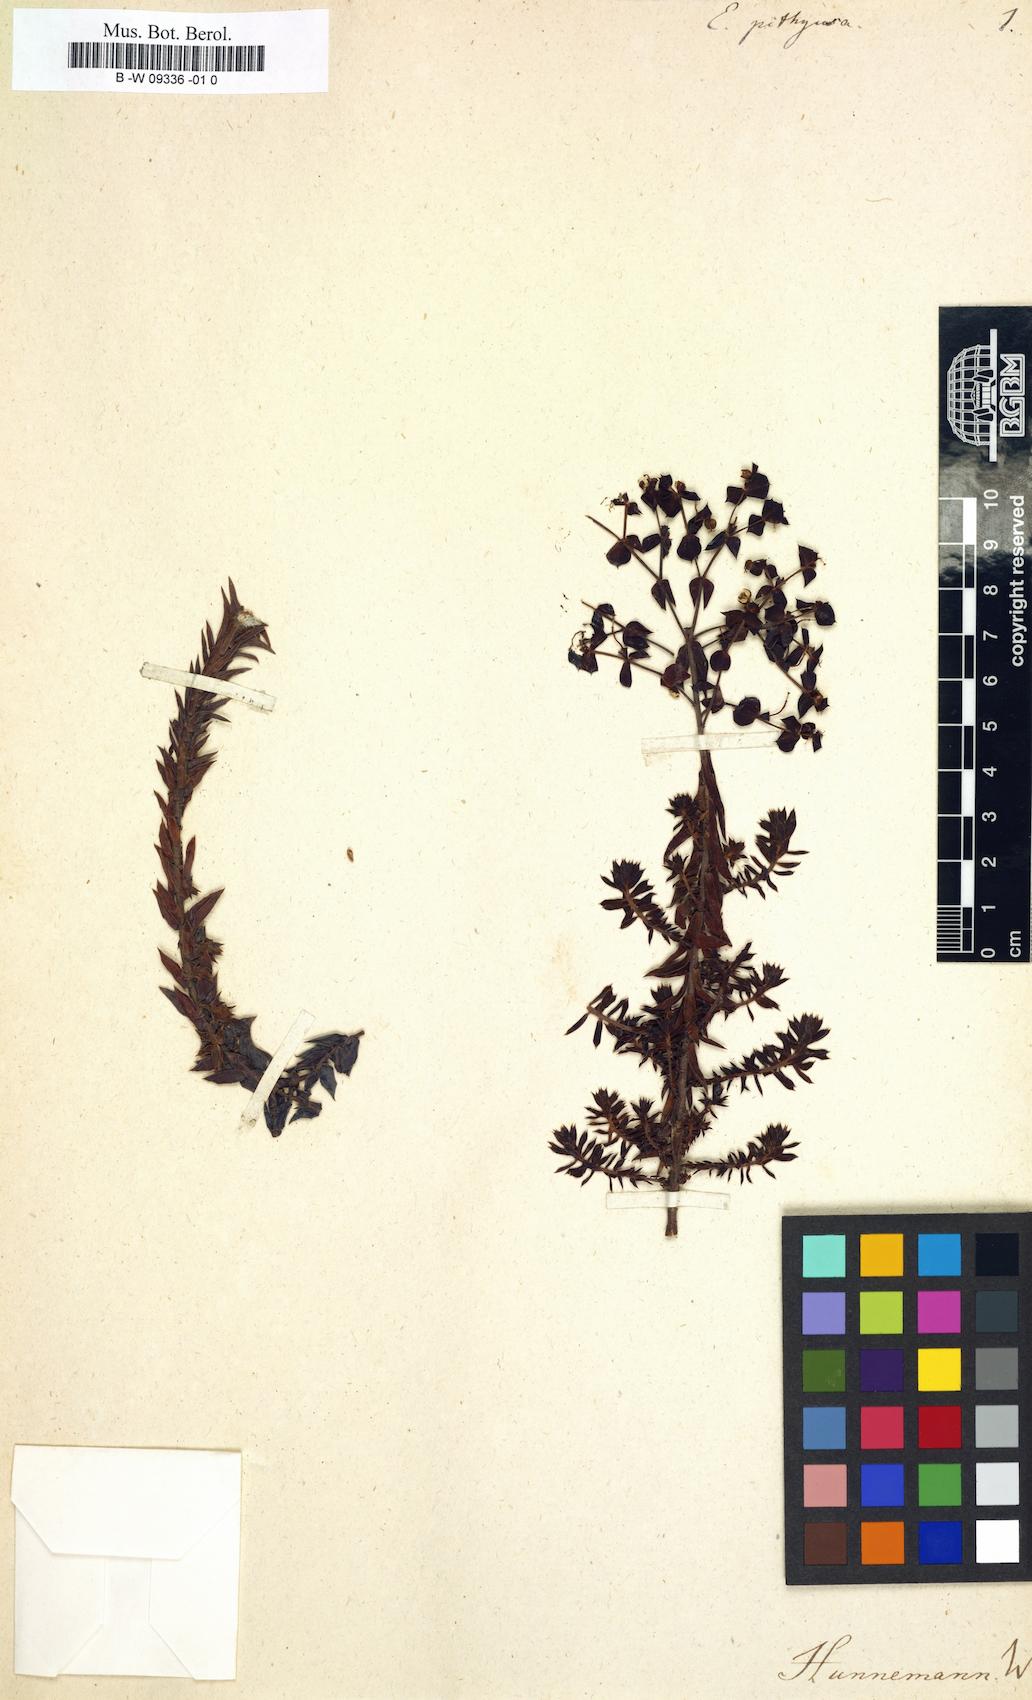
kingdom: Plantae
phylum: Tracheophyta
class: Magnoliopsida
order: Malpighiales
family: Euphorbiaceae
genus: Euphorbia
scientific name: Euphorbia pithyusa
